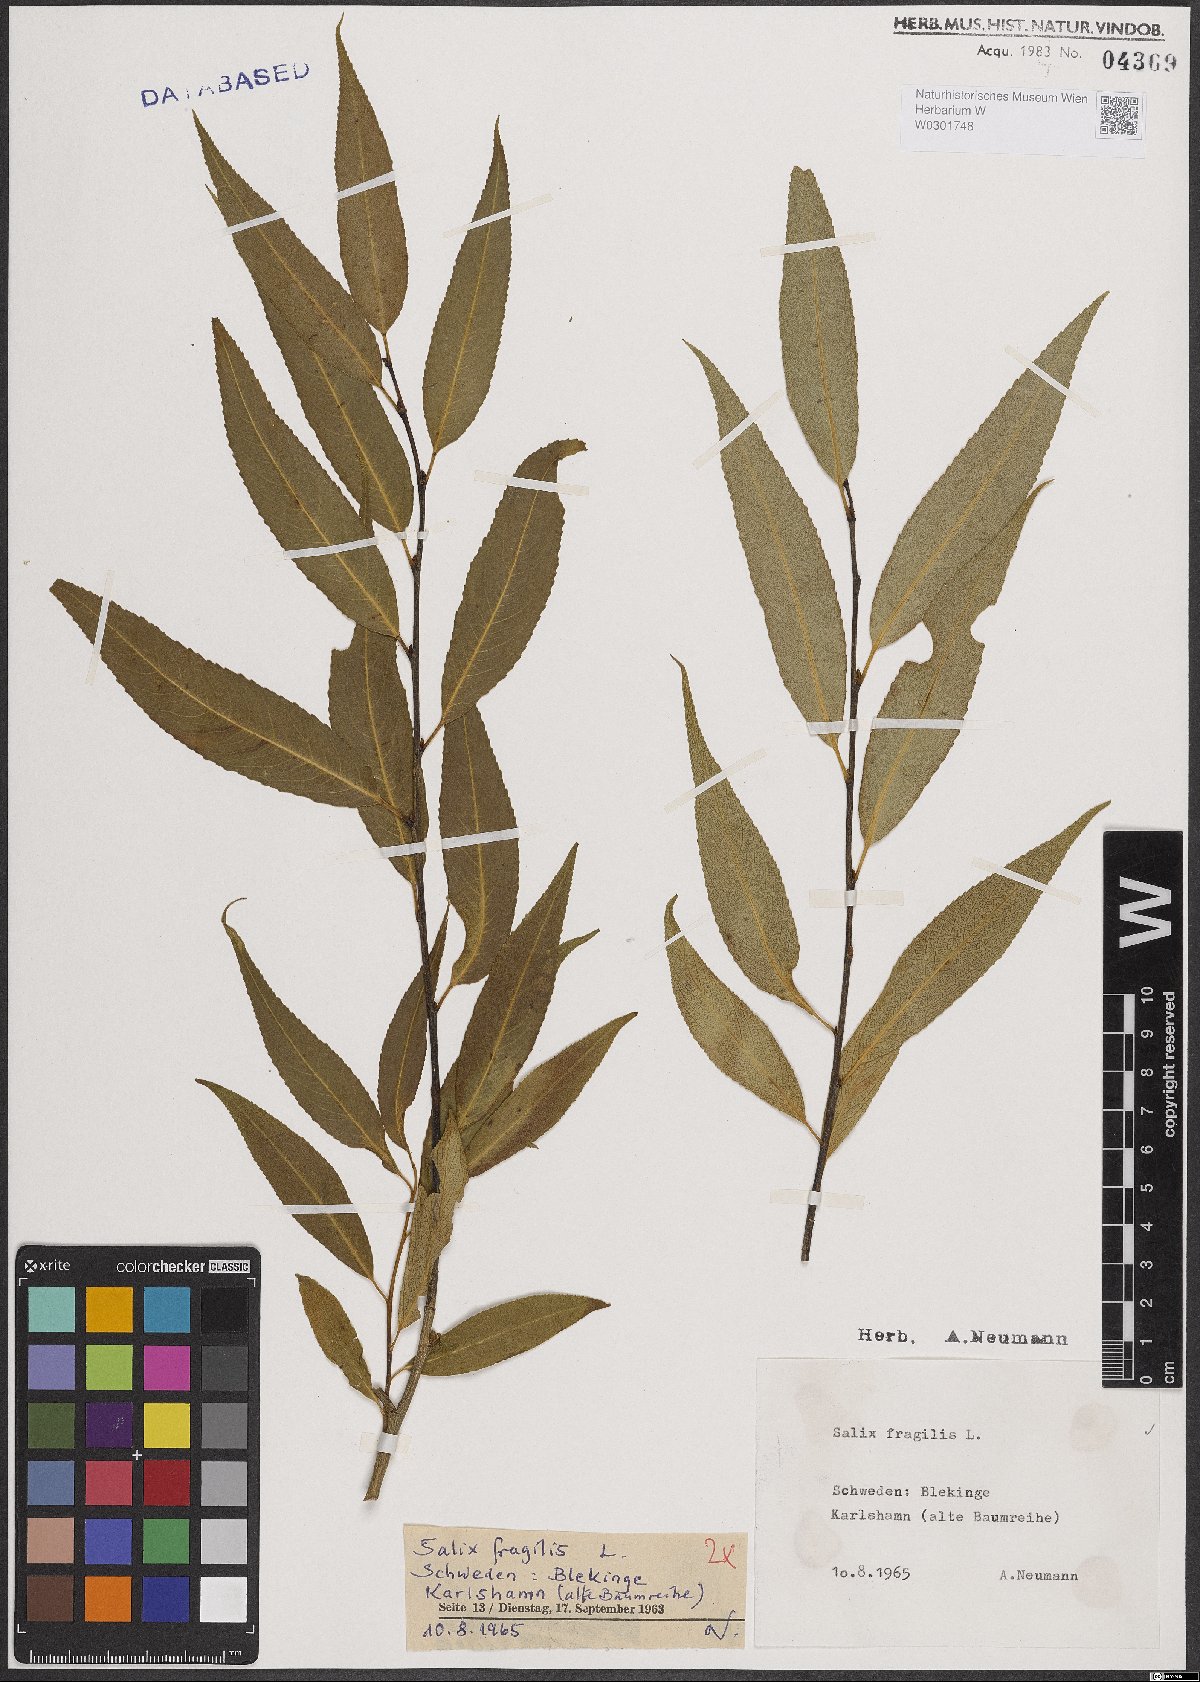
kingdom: Plantae
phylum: Tracheophyta
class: Magnoliopsida
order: Malpighiales
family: Salicaceae
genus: Salix
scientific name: Salix fragilis
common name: Crack willow
